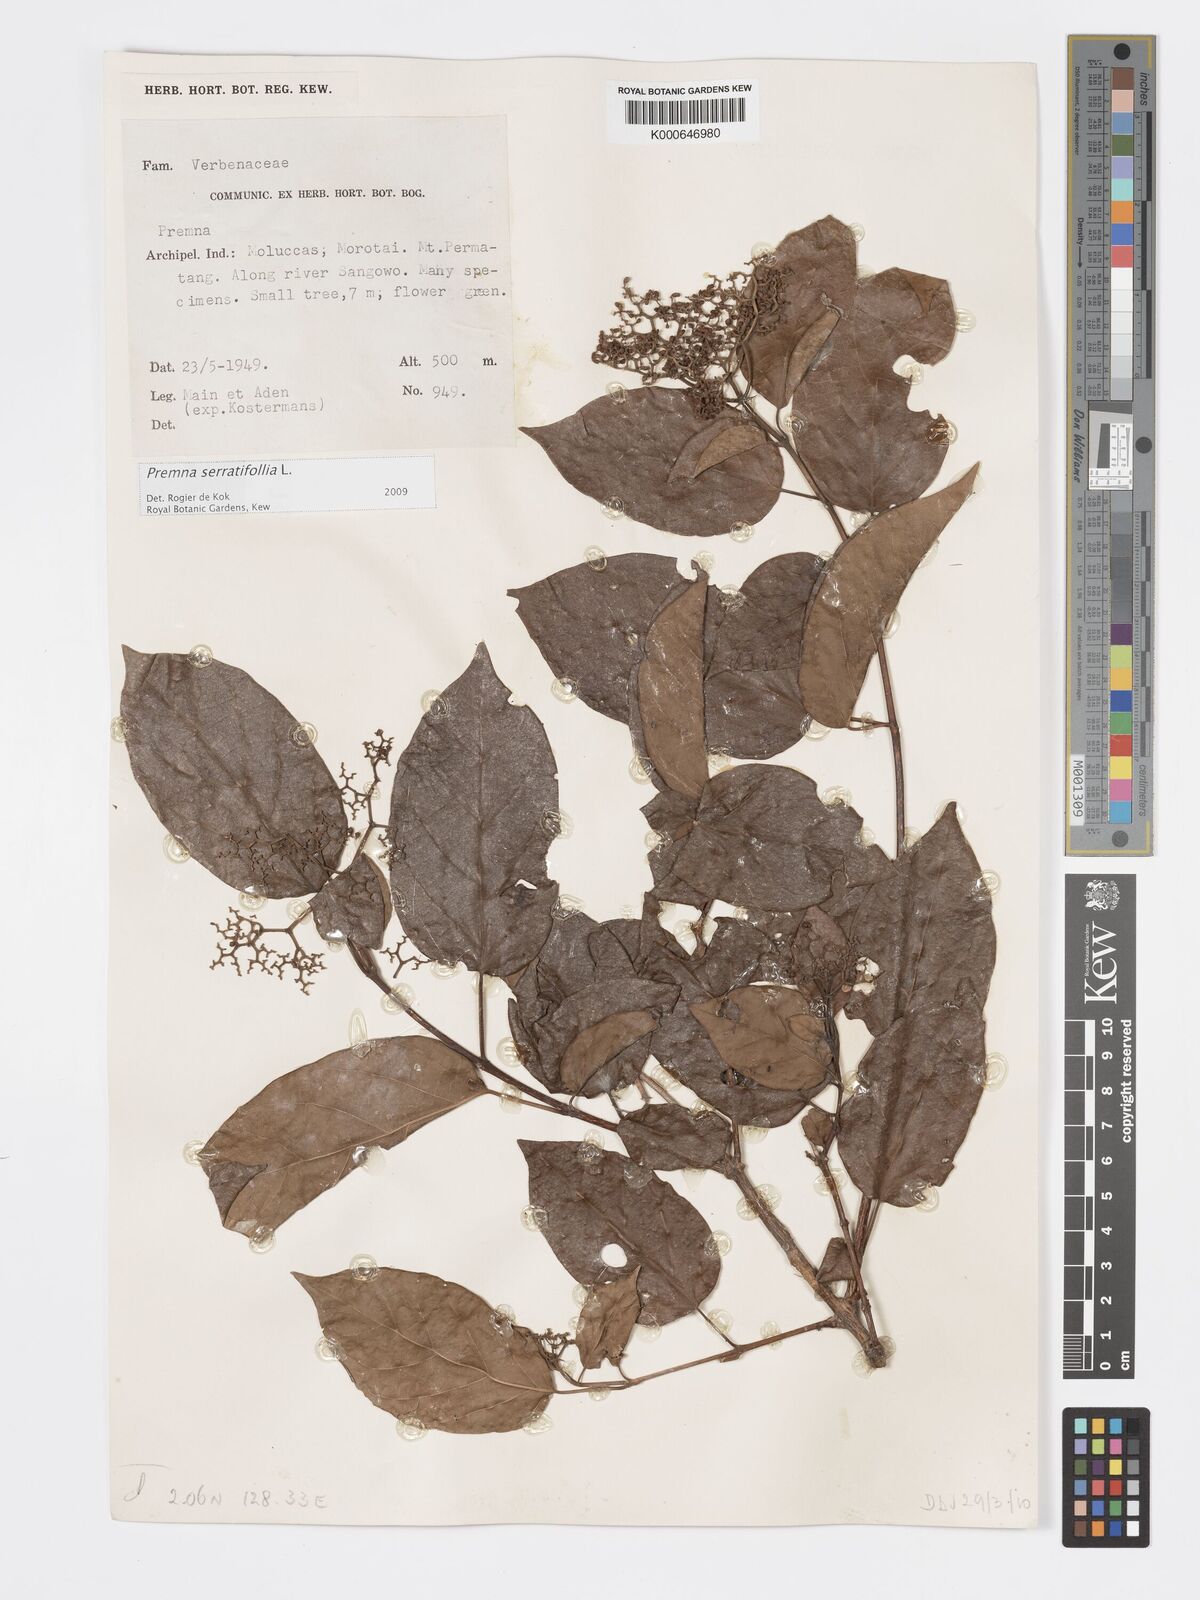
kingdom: Plantae
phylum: Tracheophyta
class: Magnoliopsida
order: Lamiales
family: Lamiaceae
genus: Premna
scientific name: Premna serratifolia
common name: Bastard guelder
